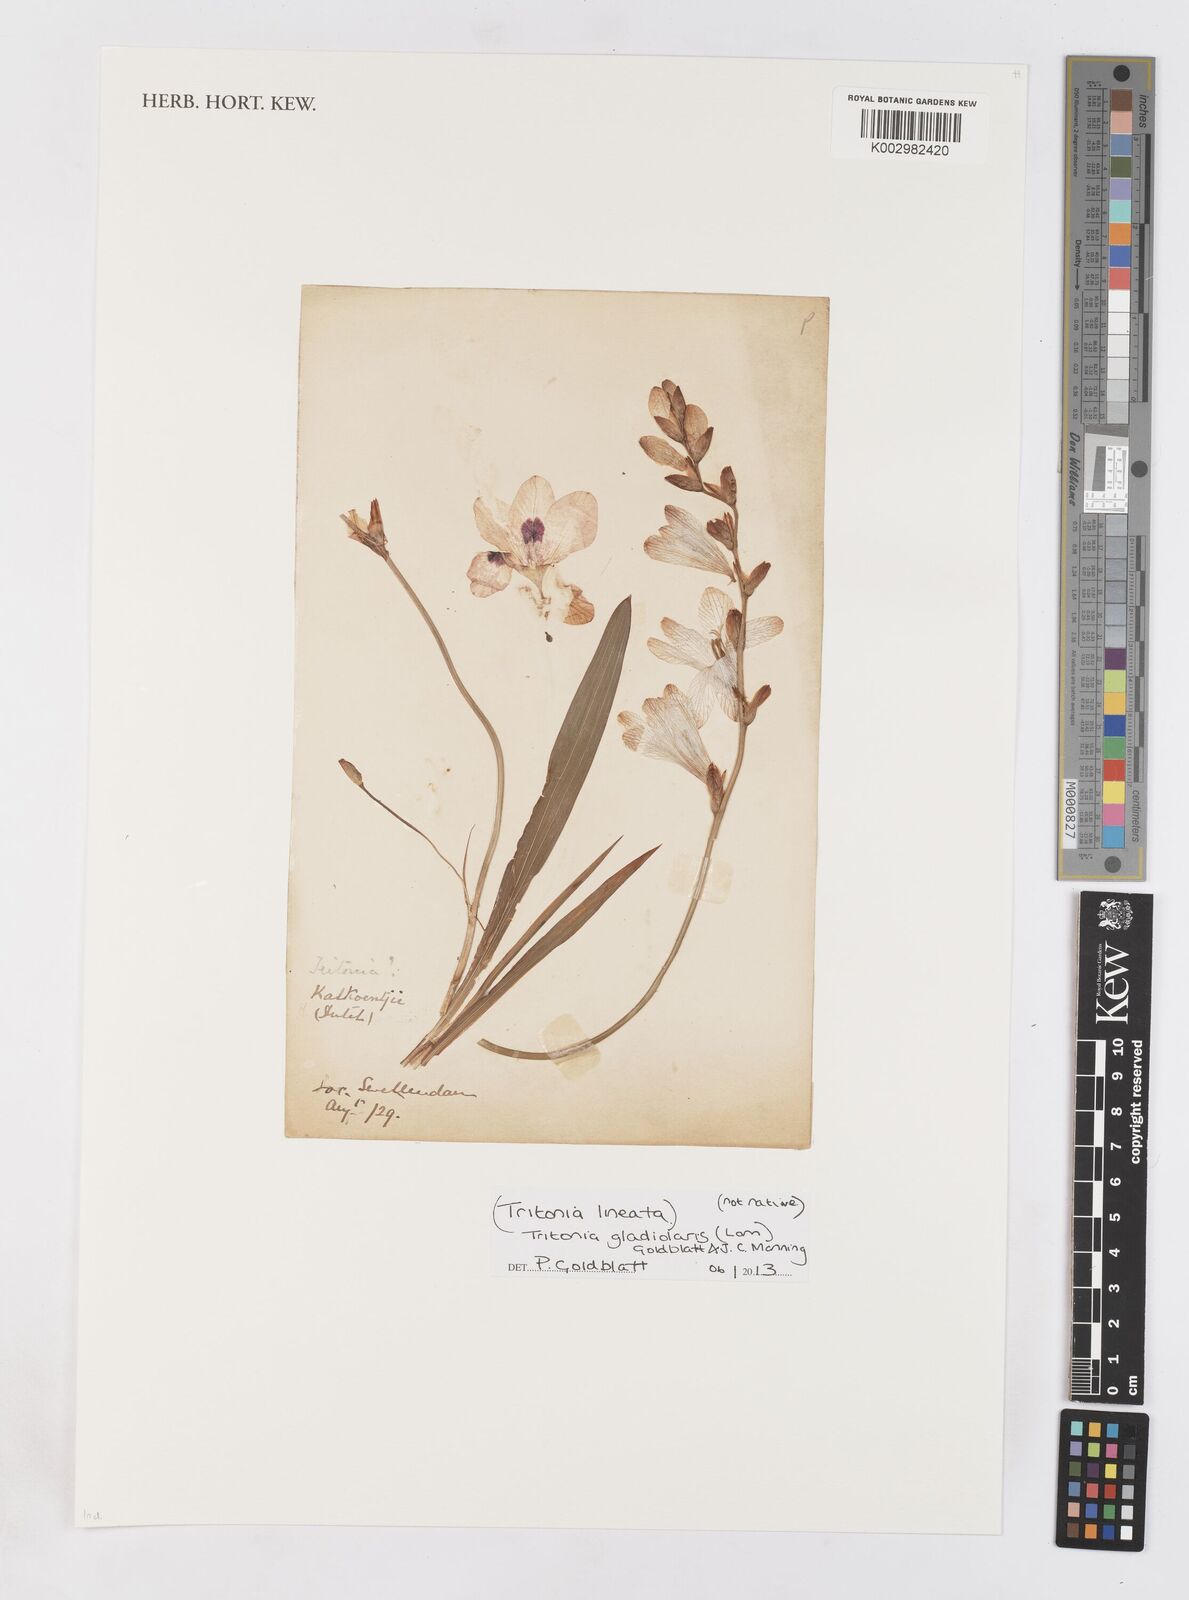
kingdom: Plantae
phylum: Tracheophyta
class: Liliopsida
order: Asparagales
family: Iridaceae
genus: Tritonia
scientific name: Tritonia gladiolaris
